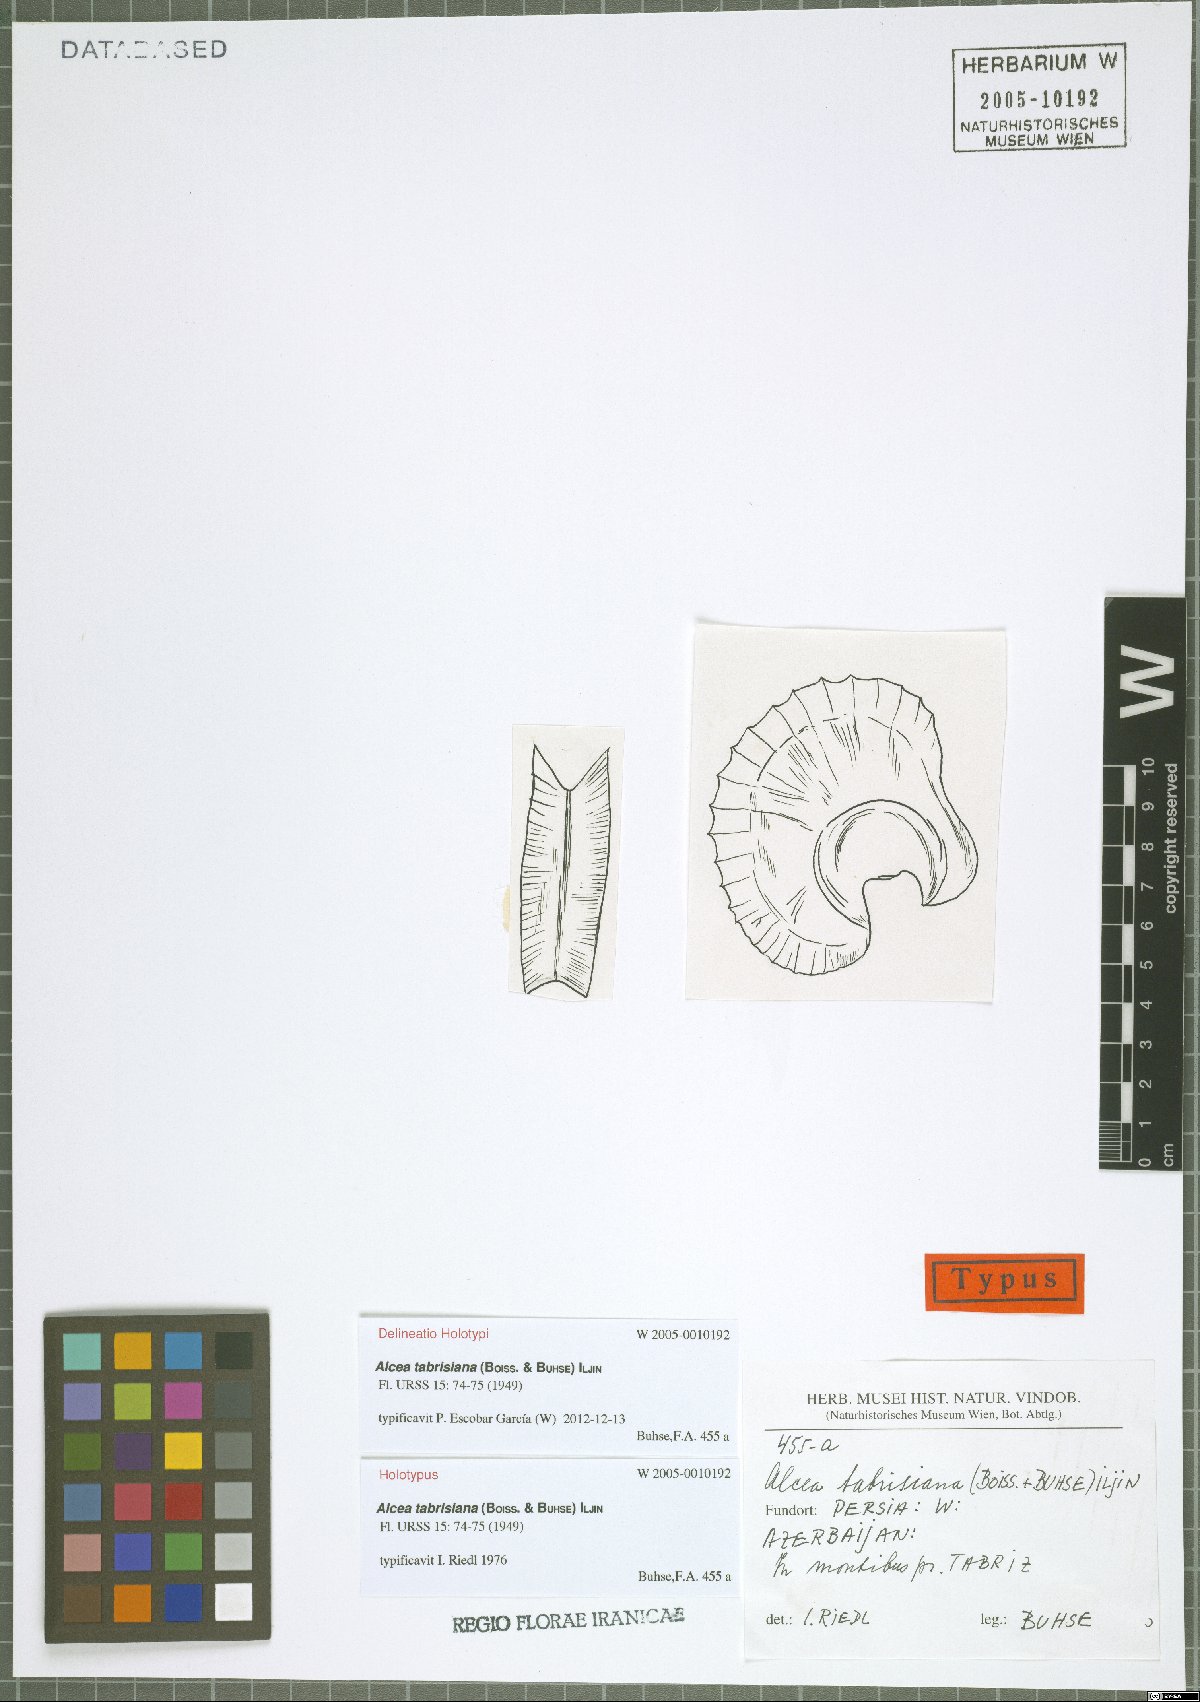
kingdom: Plantae
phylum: Tracheophyta
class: Magnoliopsida
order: Malvales
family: Malvaceae
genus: Alcea
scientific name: Alcea tabrisiana
